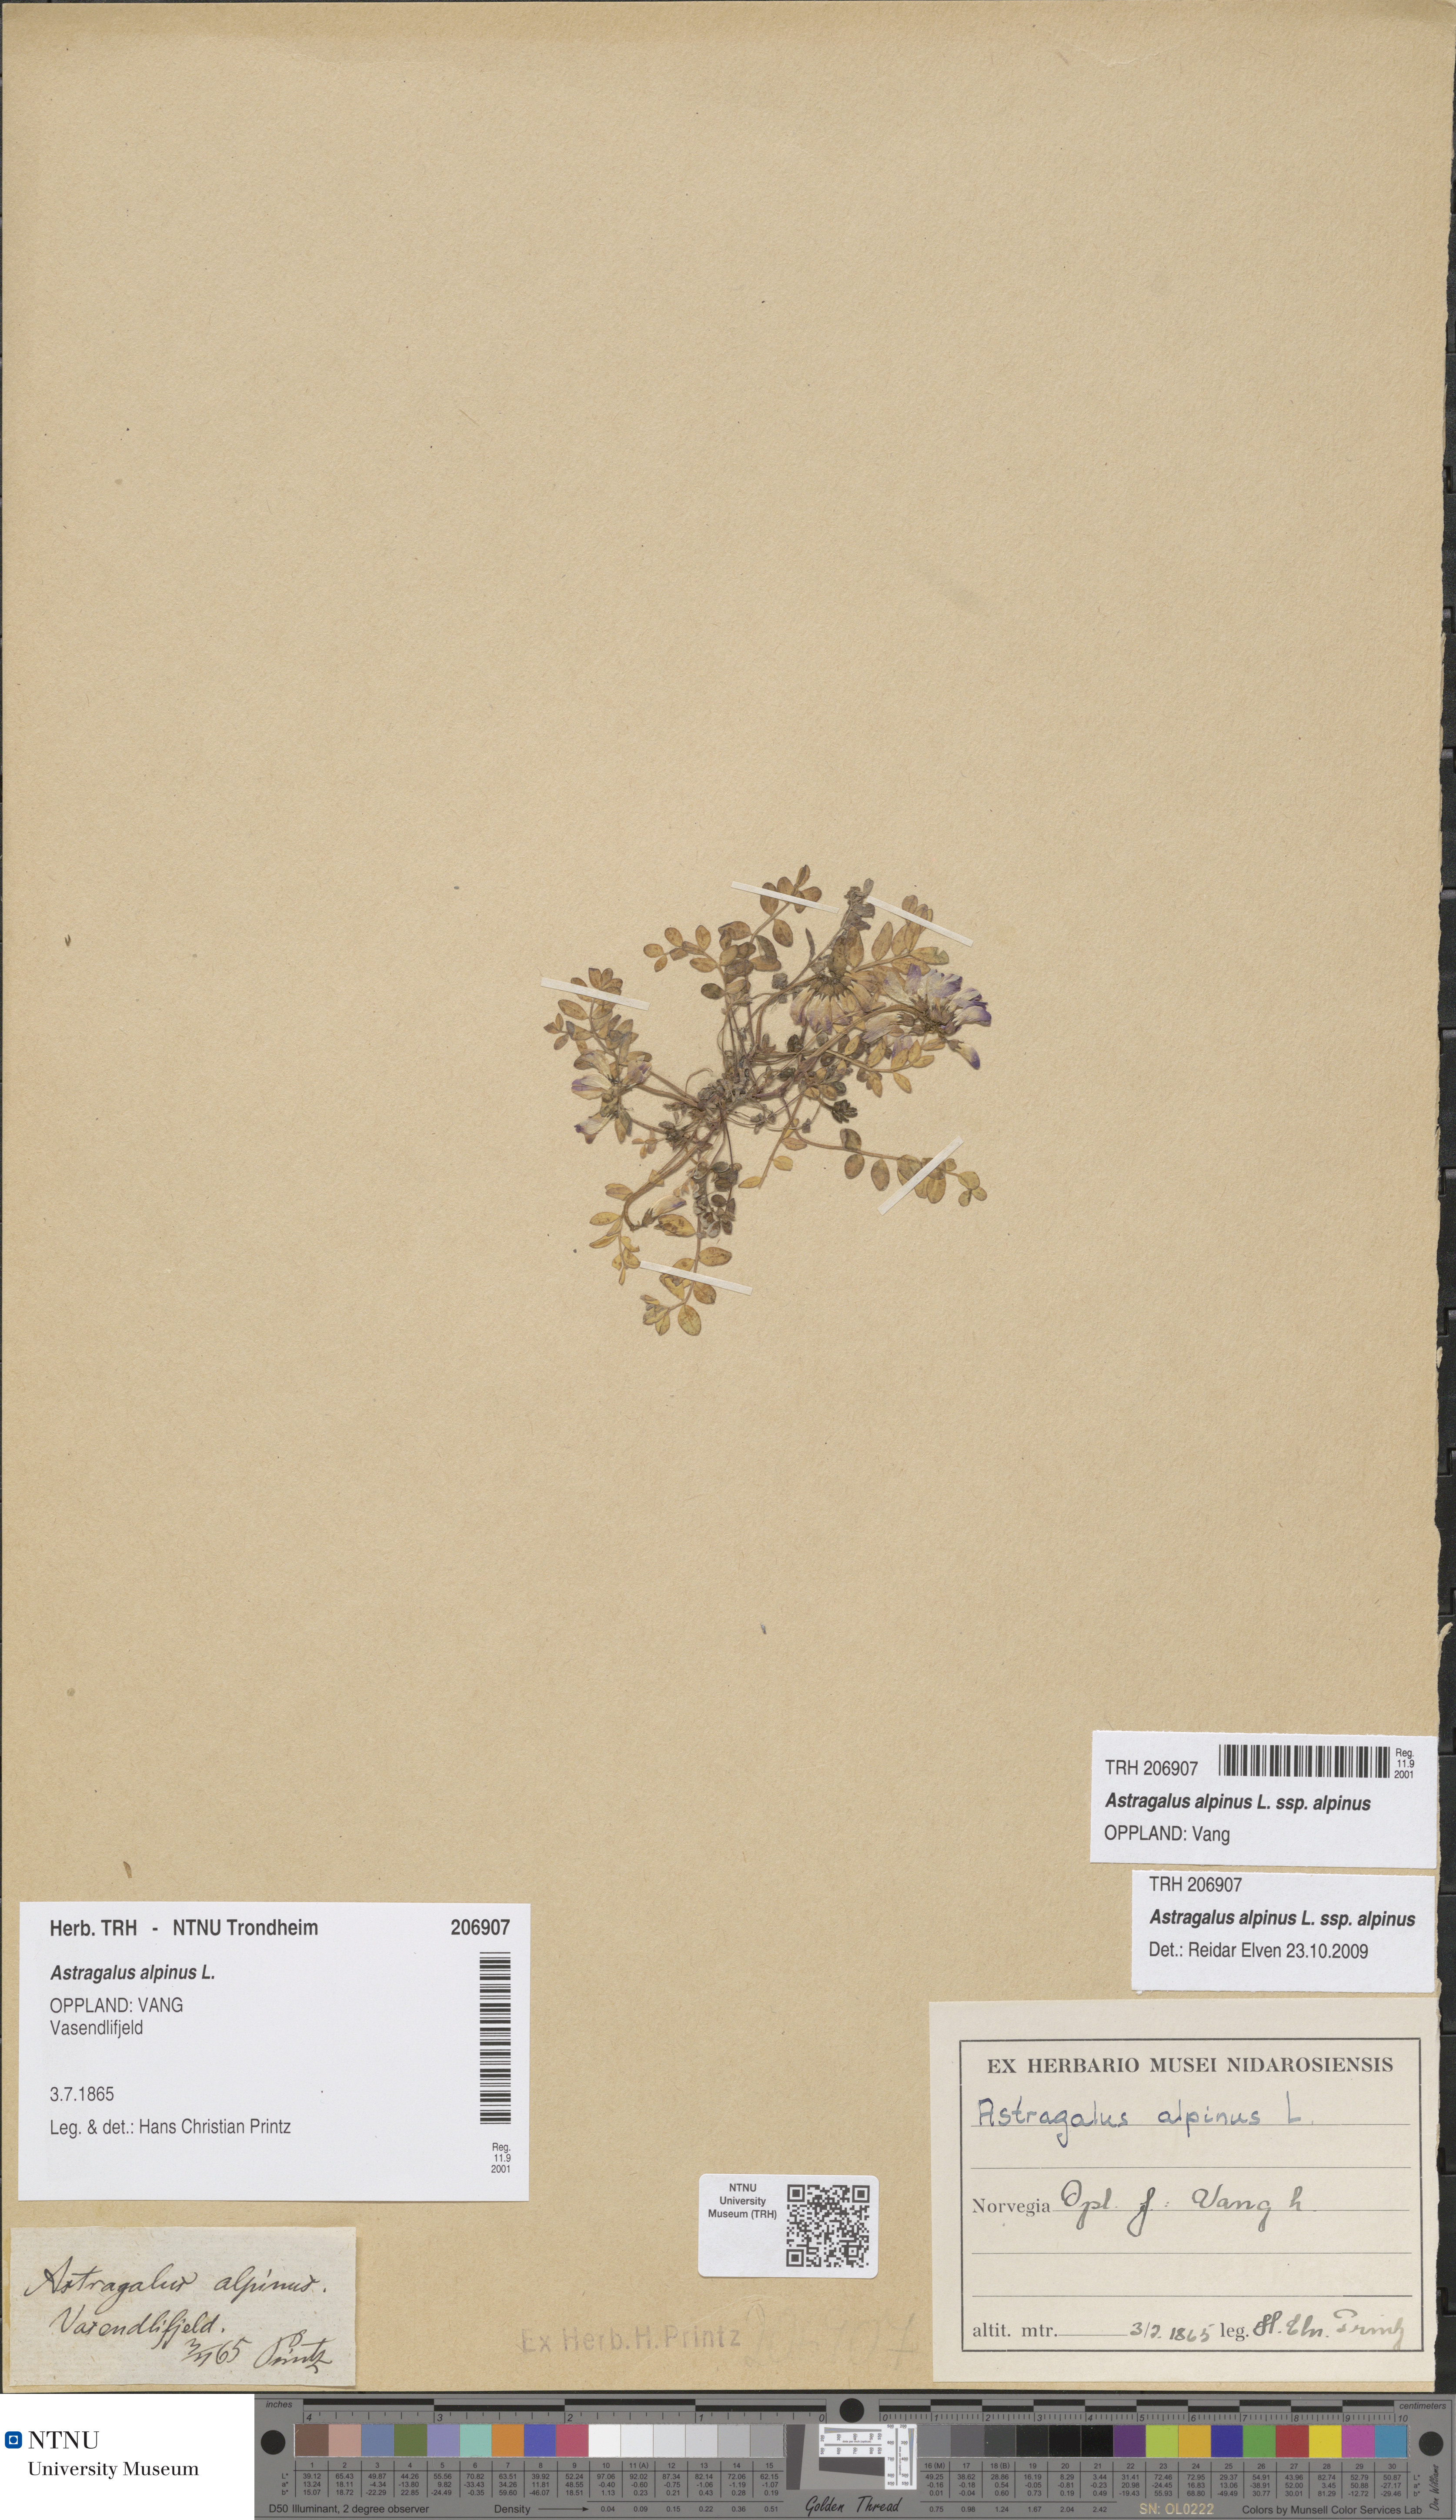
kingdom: Plantae
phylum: Tracheophyta
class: Magnoliopsida
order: Fabales
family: Fabaceae
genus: Astragalus
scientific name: Astragalus alpinus
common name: Alpine milk-vetch
